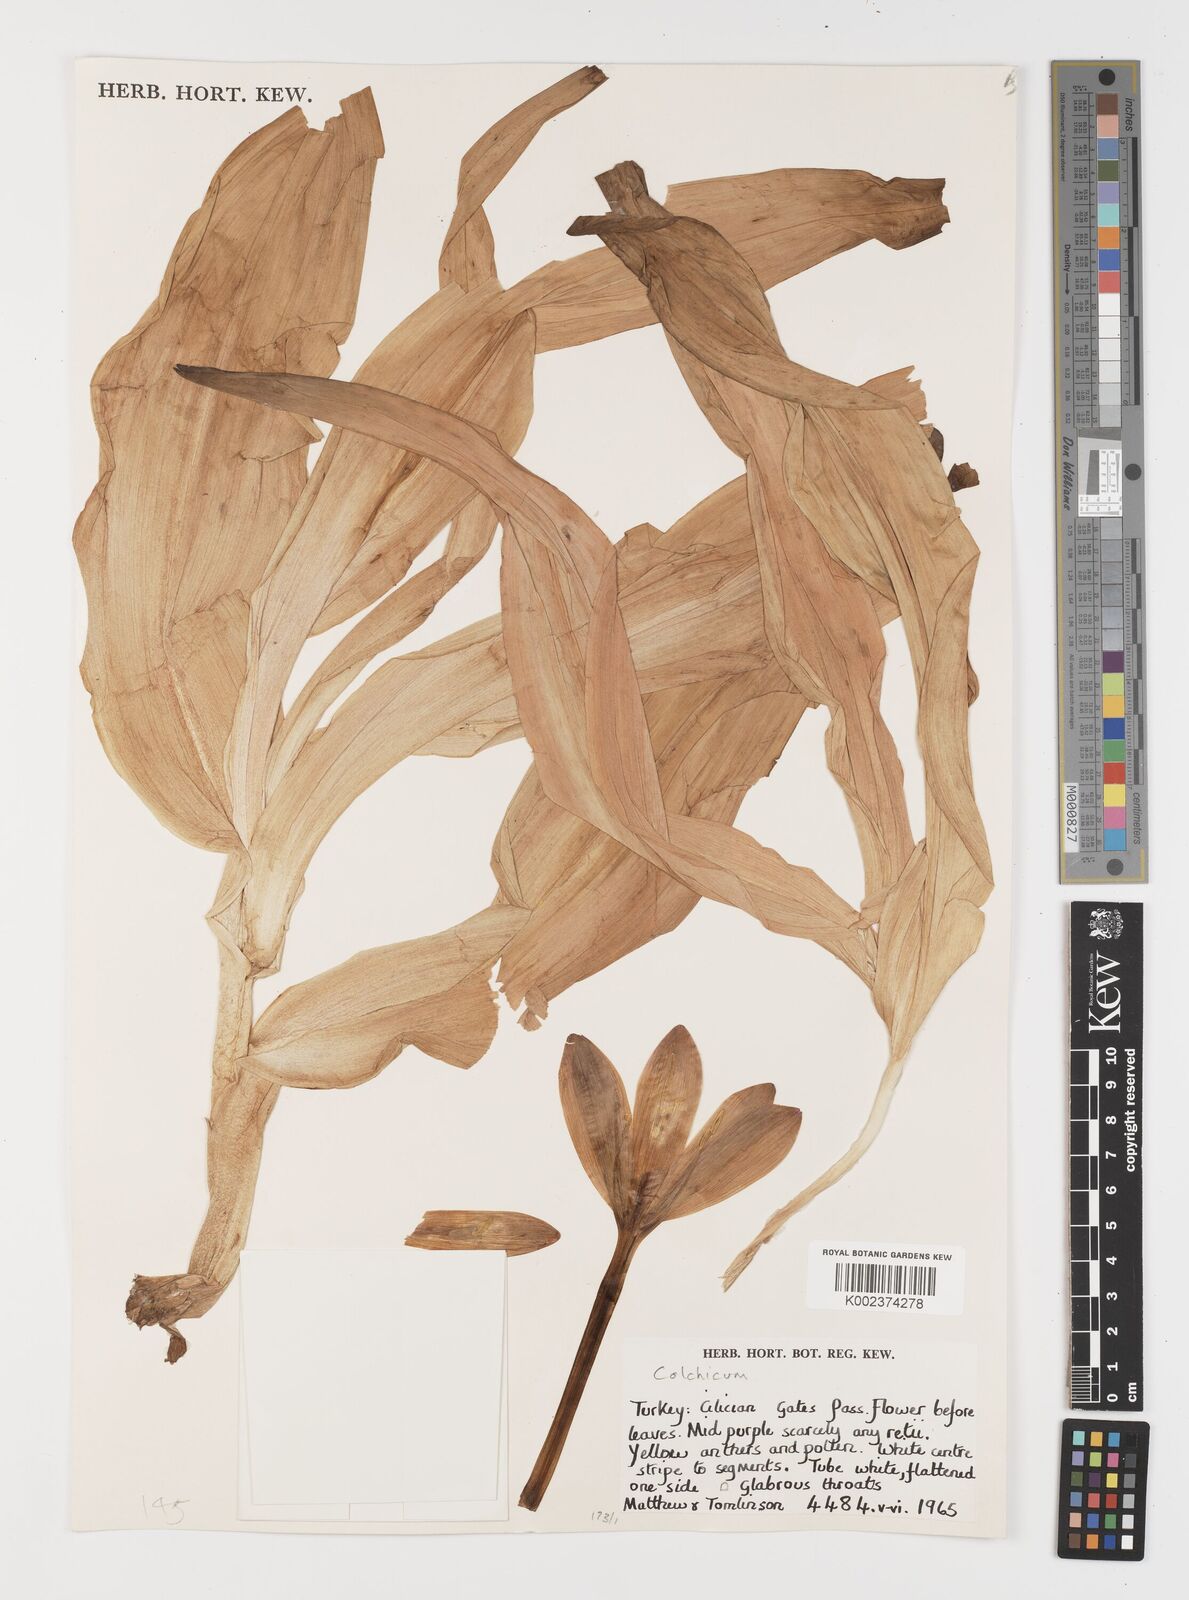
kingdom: Plantae
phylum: Tracheophyta
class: Liliopsida
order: Liliales
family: Colchicaceae
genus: Colchicum
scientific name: Colchicum
